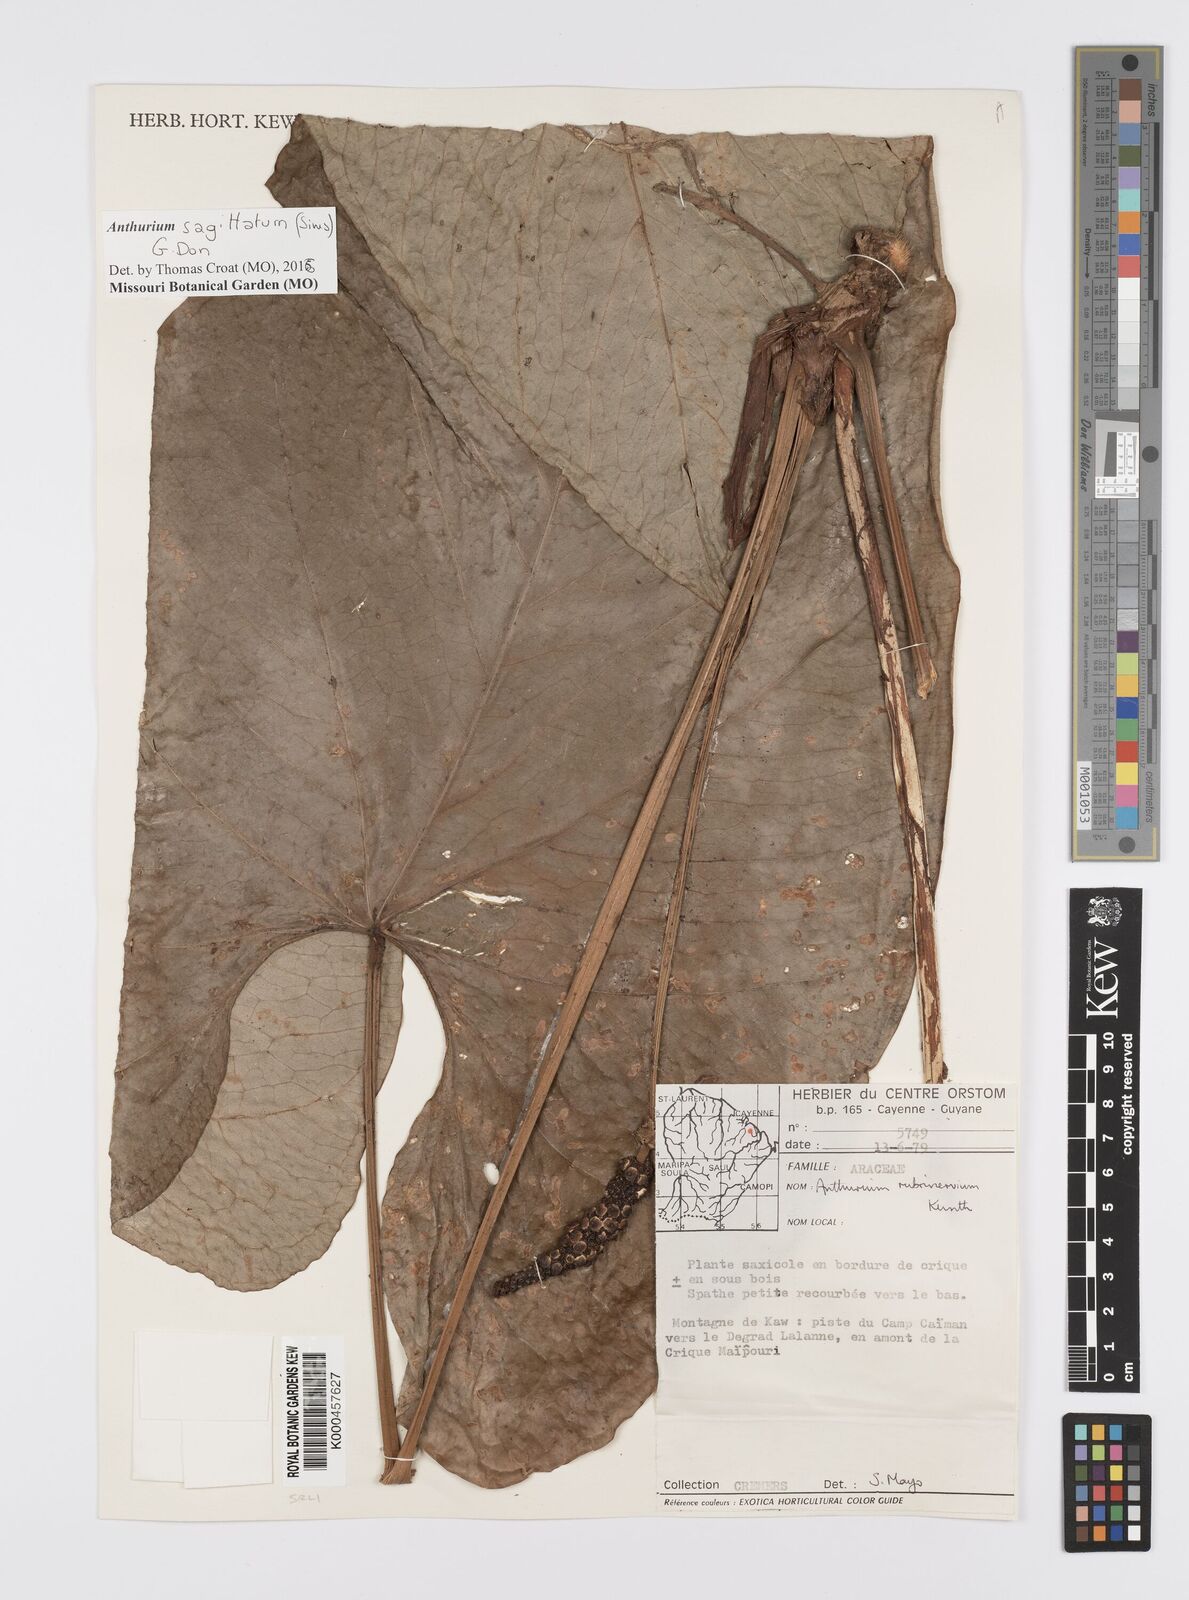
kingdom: Plantae
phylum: Tracheophyta
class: Liliopsida
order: Alismatales
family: Araceae
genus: Anthurium
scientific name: Anthurium sagittatum
